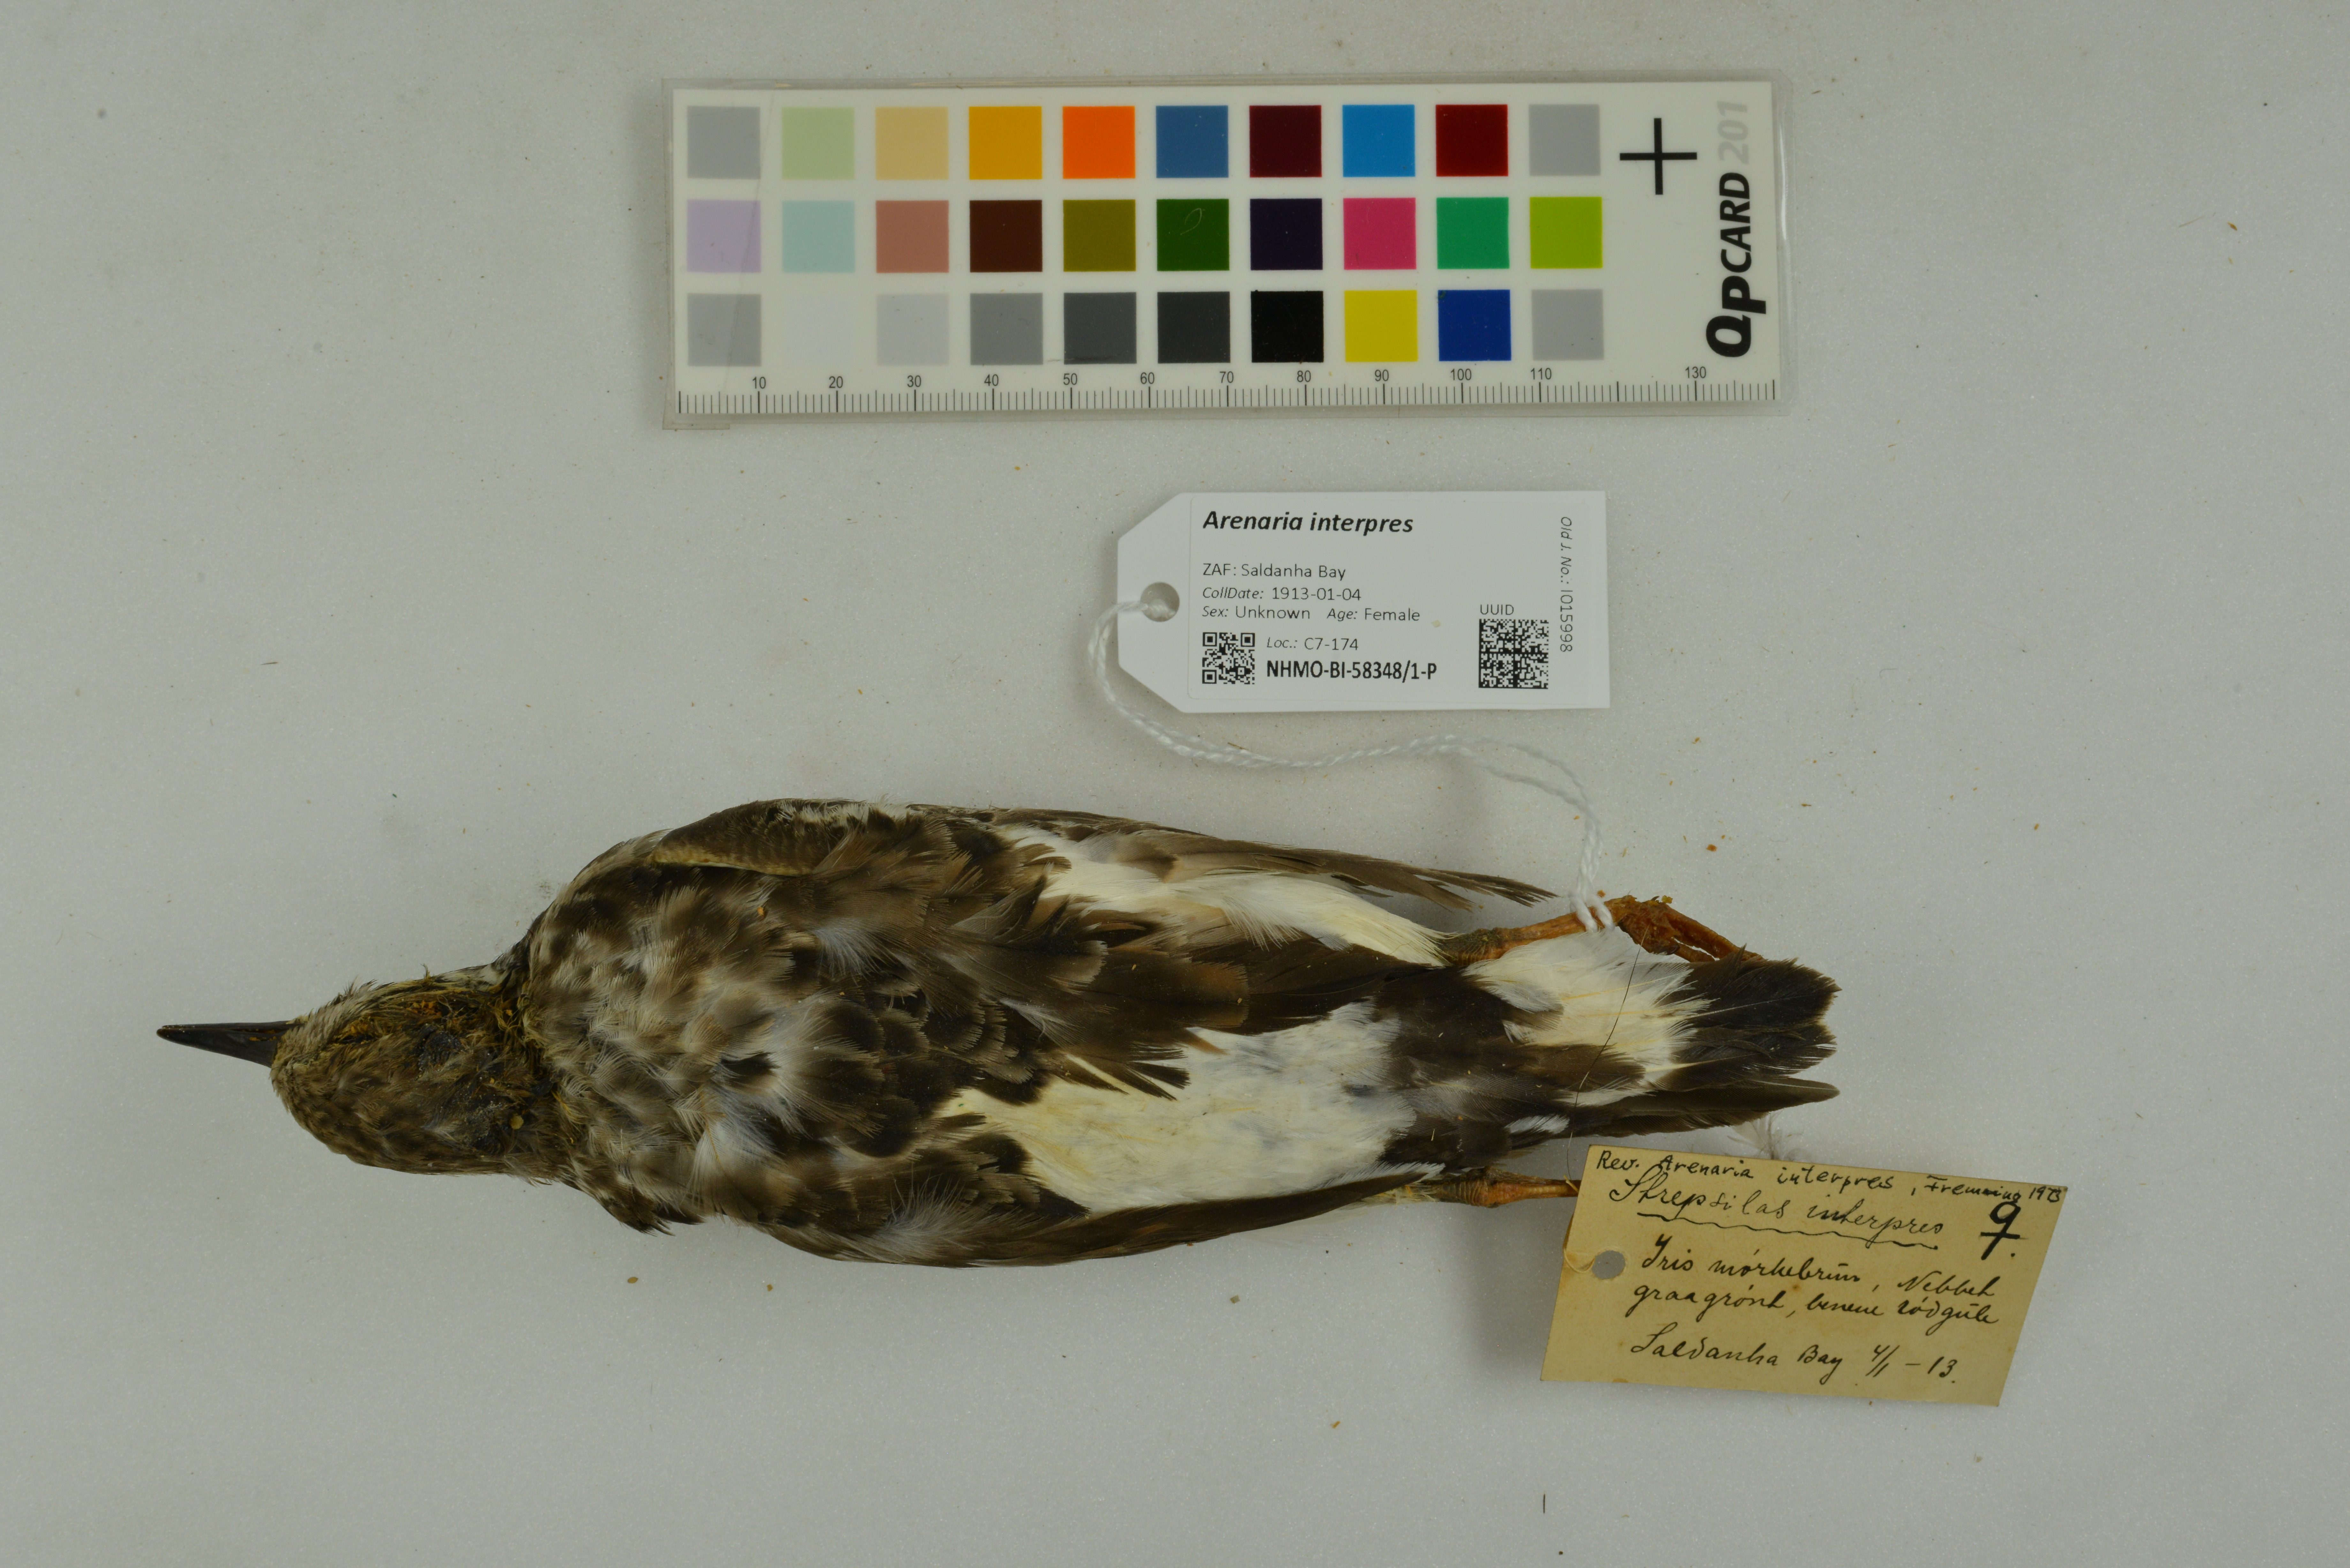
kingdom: Animalia
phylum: Chordata
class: Aves
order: Charadriiformes
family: Scolopacidae
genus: Arenaria
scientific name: Arenaria interpres
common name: Ruddy turnstone
